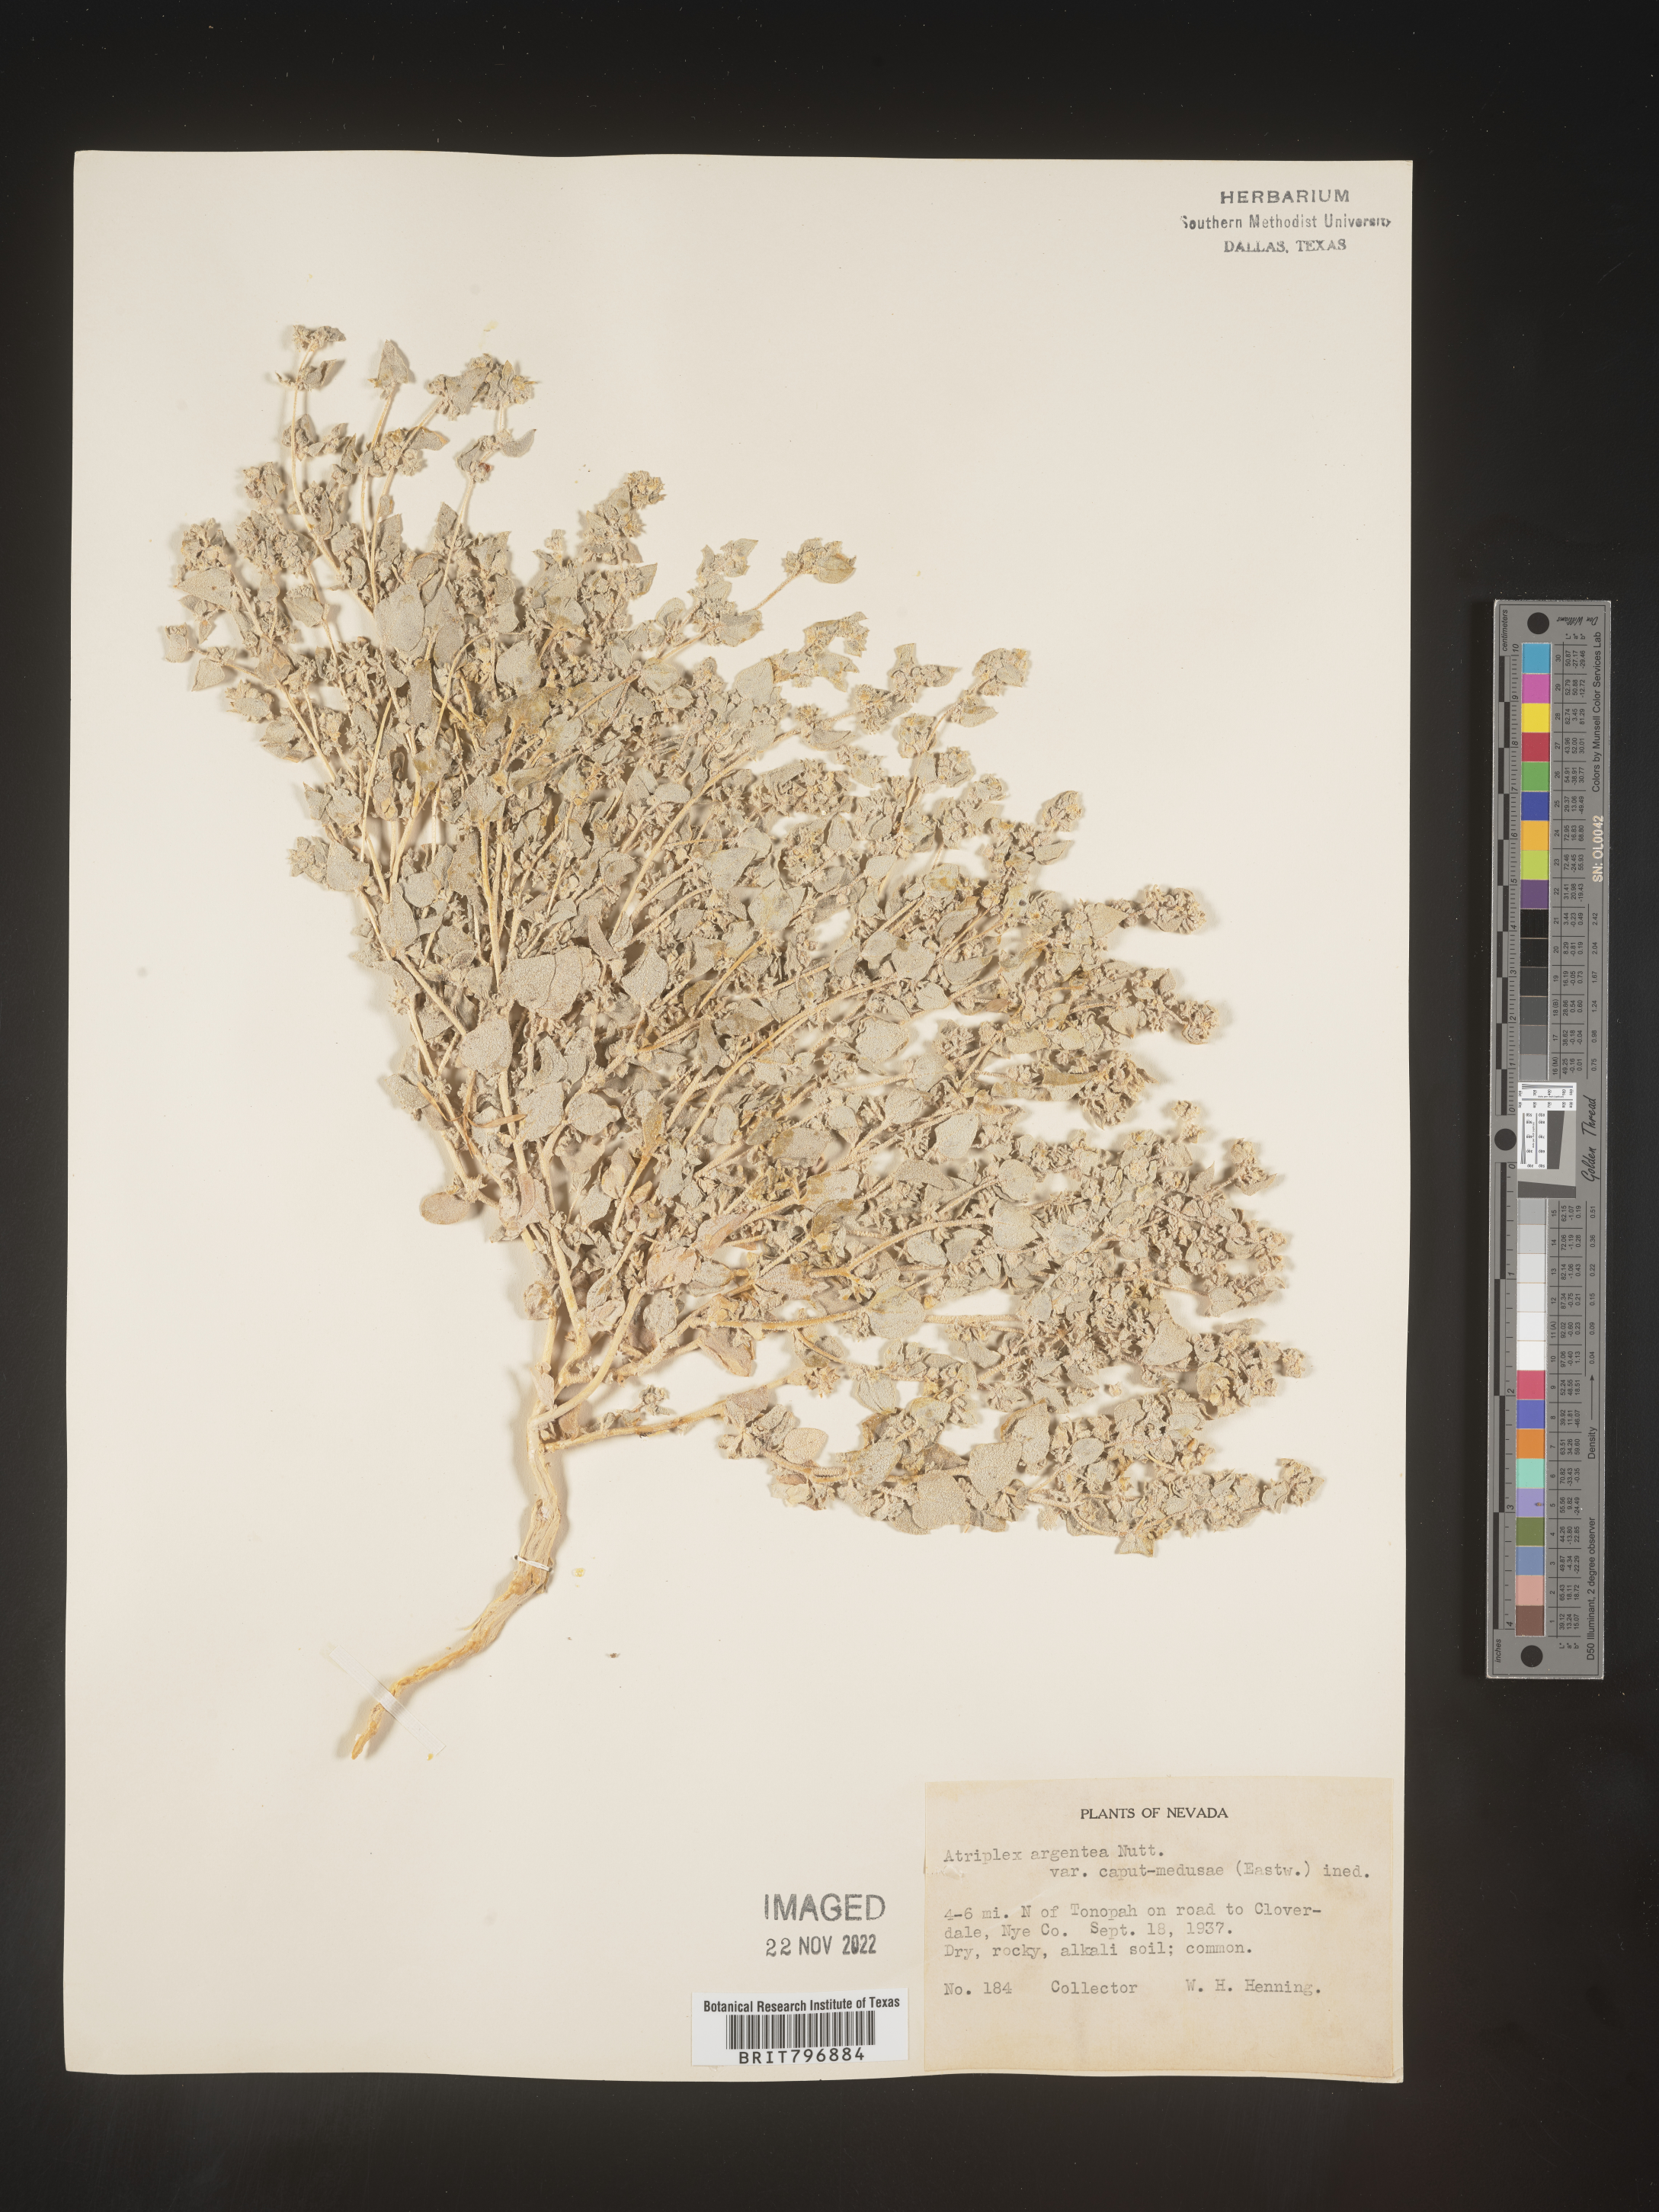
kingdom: Plantae
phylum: Tracheophyta
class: Magnoliopsida
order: Caryophyllales
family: Amaranthaceae
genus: Atriplex
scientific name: Atriplex argentea
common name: Silverscale
